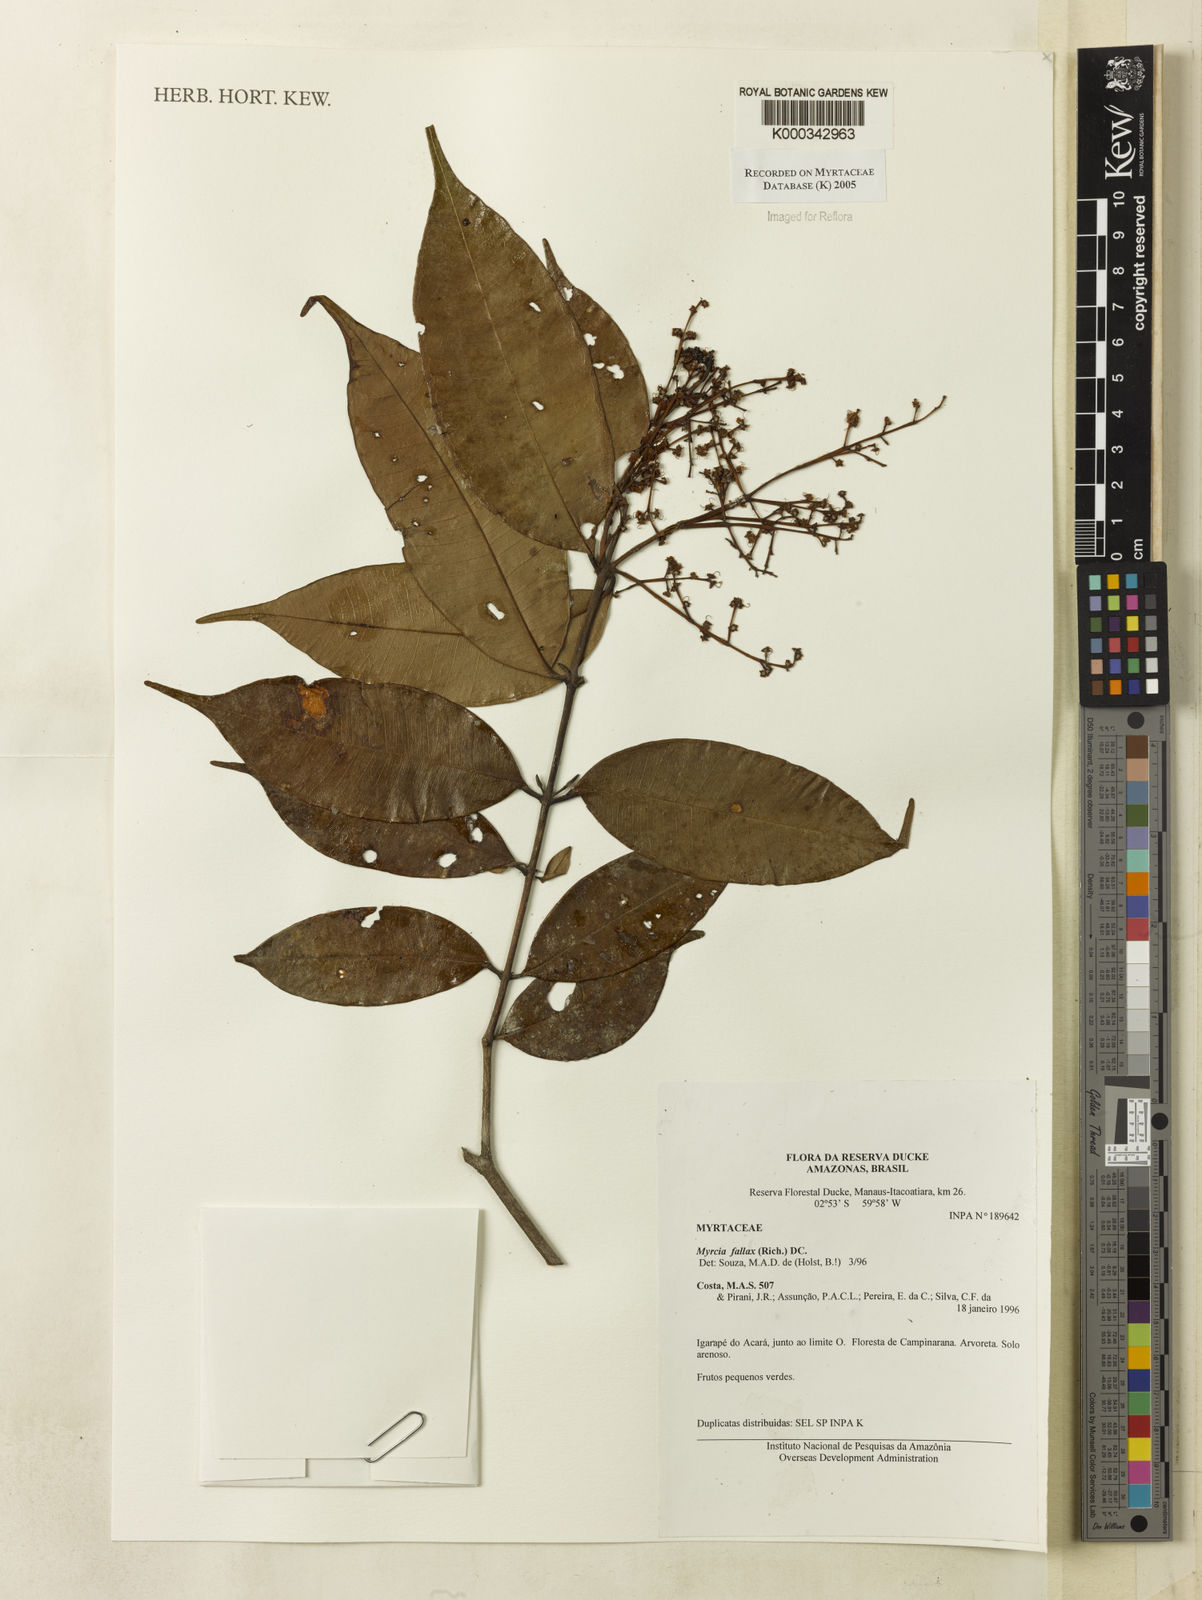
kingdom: Plantae
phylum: Tracheophyta
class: Magnoliopsida
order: Myrtales
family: Myrtaceae
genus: Myrcia
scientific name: Myrcia splendens
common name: Surinam cherry
